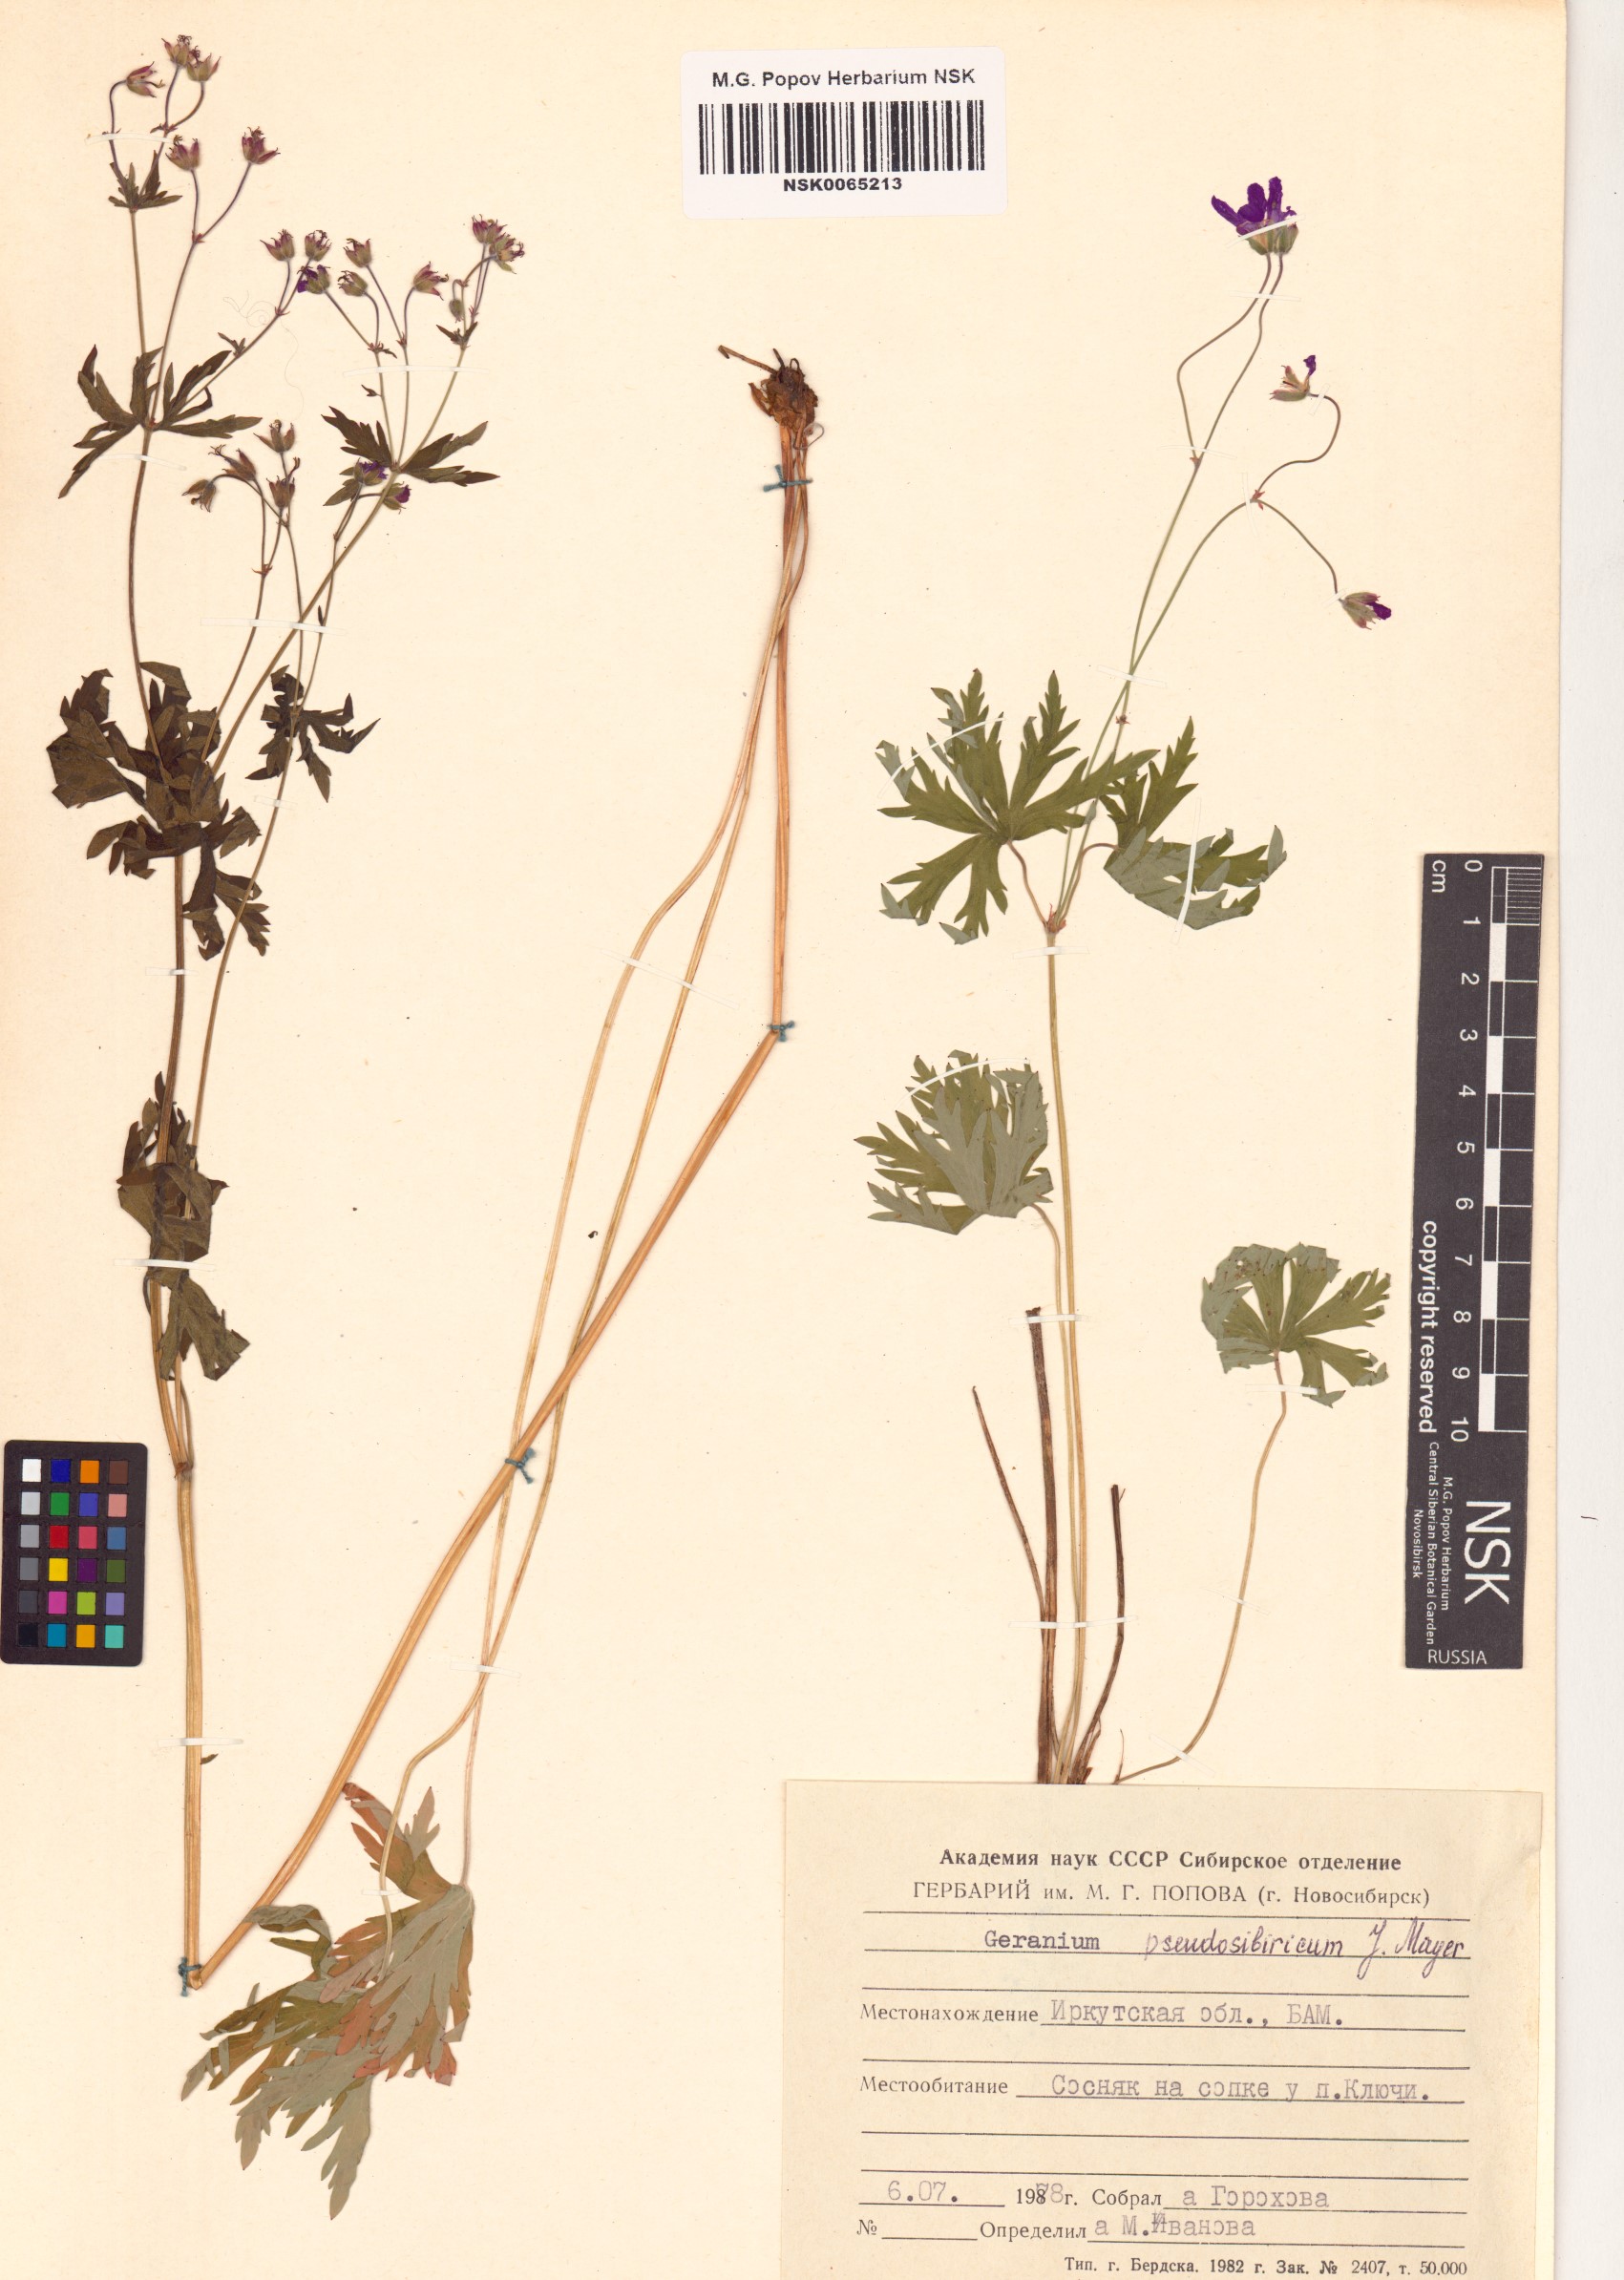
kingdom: Plantae
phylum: Tracheophyta
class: Magnoliopsida
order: Geraniales
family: Geraniaceae
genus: Geranium
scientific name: Geranium pseudosibiricum
